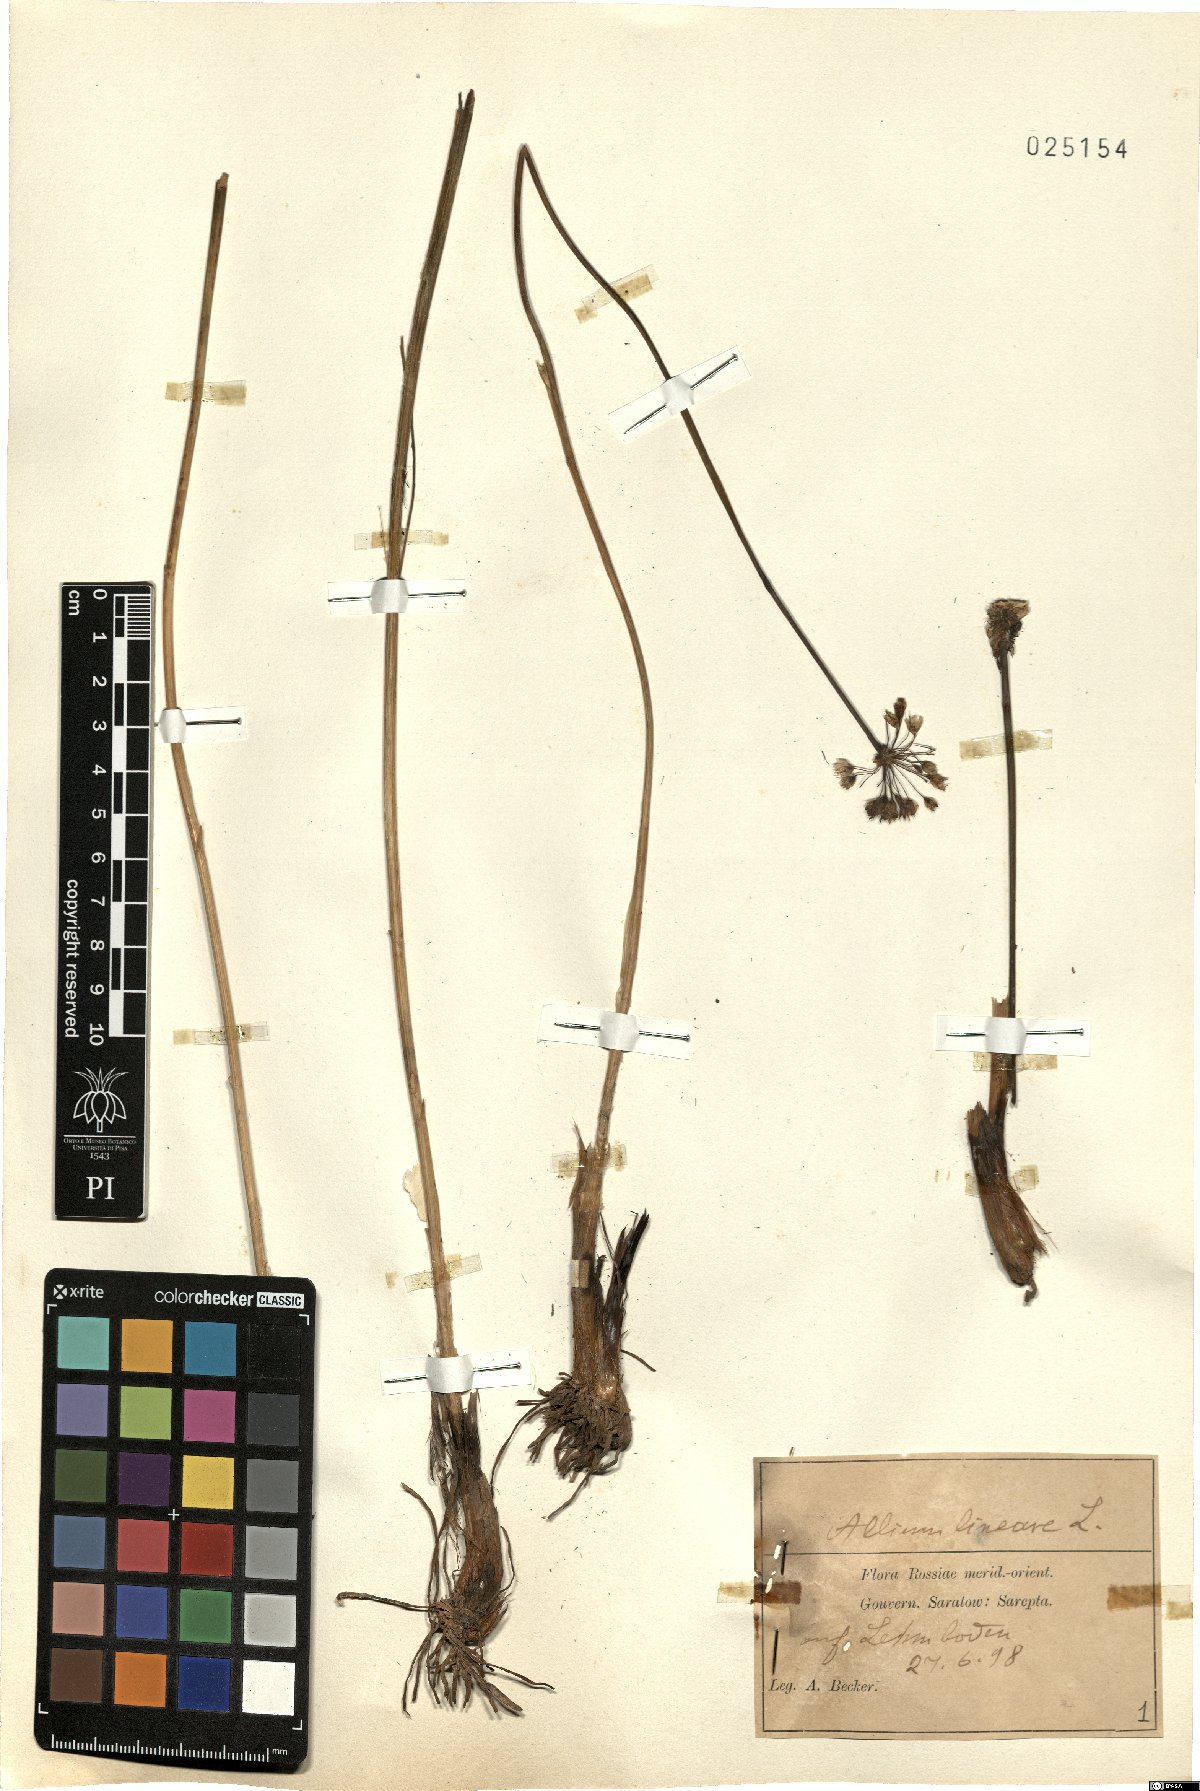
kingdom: Plantae
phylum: Tracheophyta
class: Liliopsida
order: Asparagales
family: Amaryllidaceae
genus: Allium
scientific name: Allium lineare
